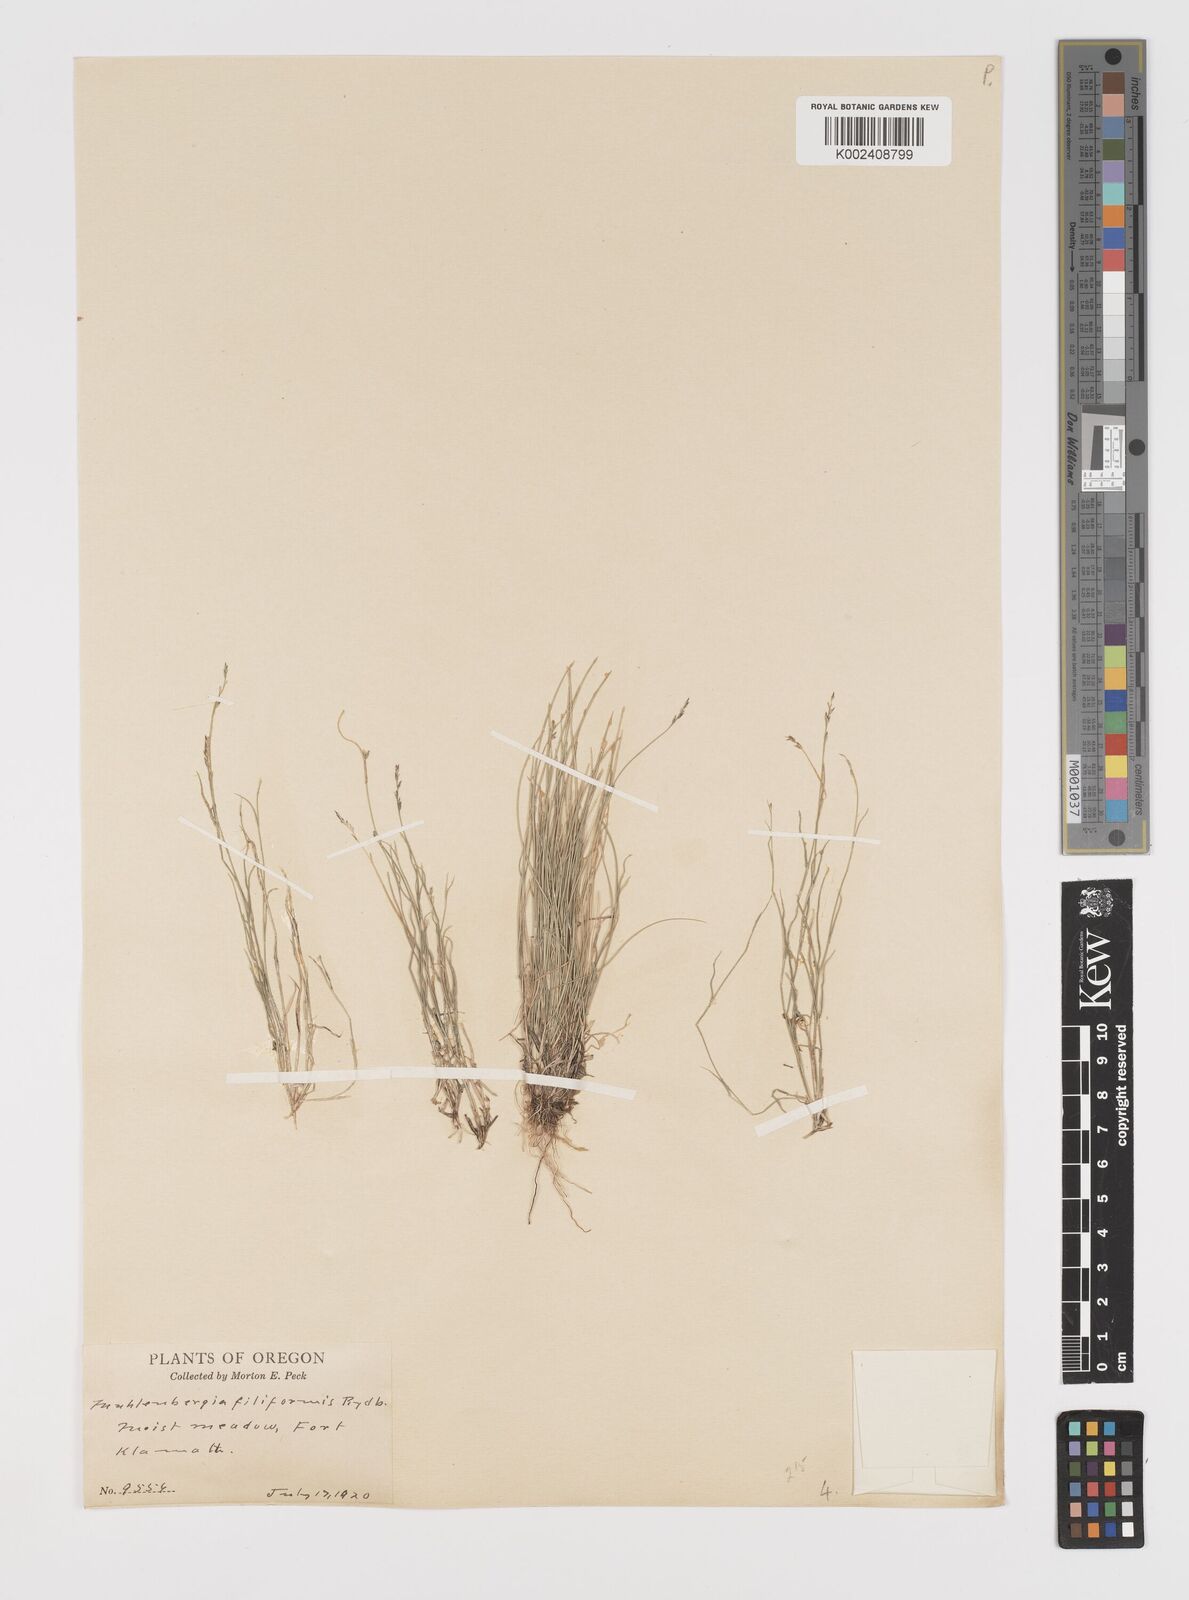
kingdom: Plantae
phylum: Tracheophyta
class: Liliopsida
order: Poales
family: Poaceae
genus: Leptochloa
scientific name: Leptochloa mucronata
